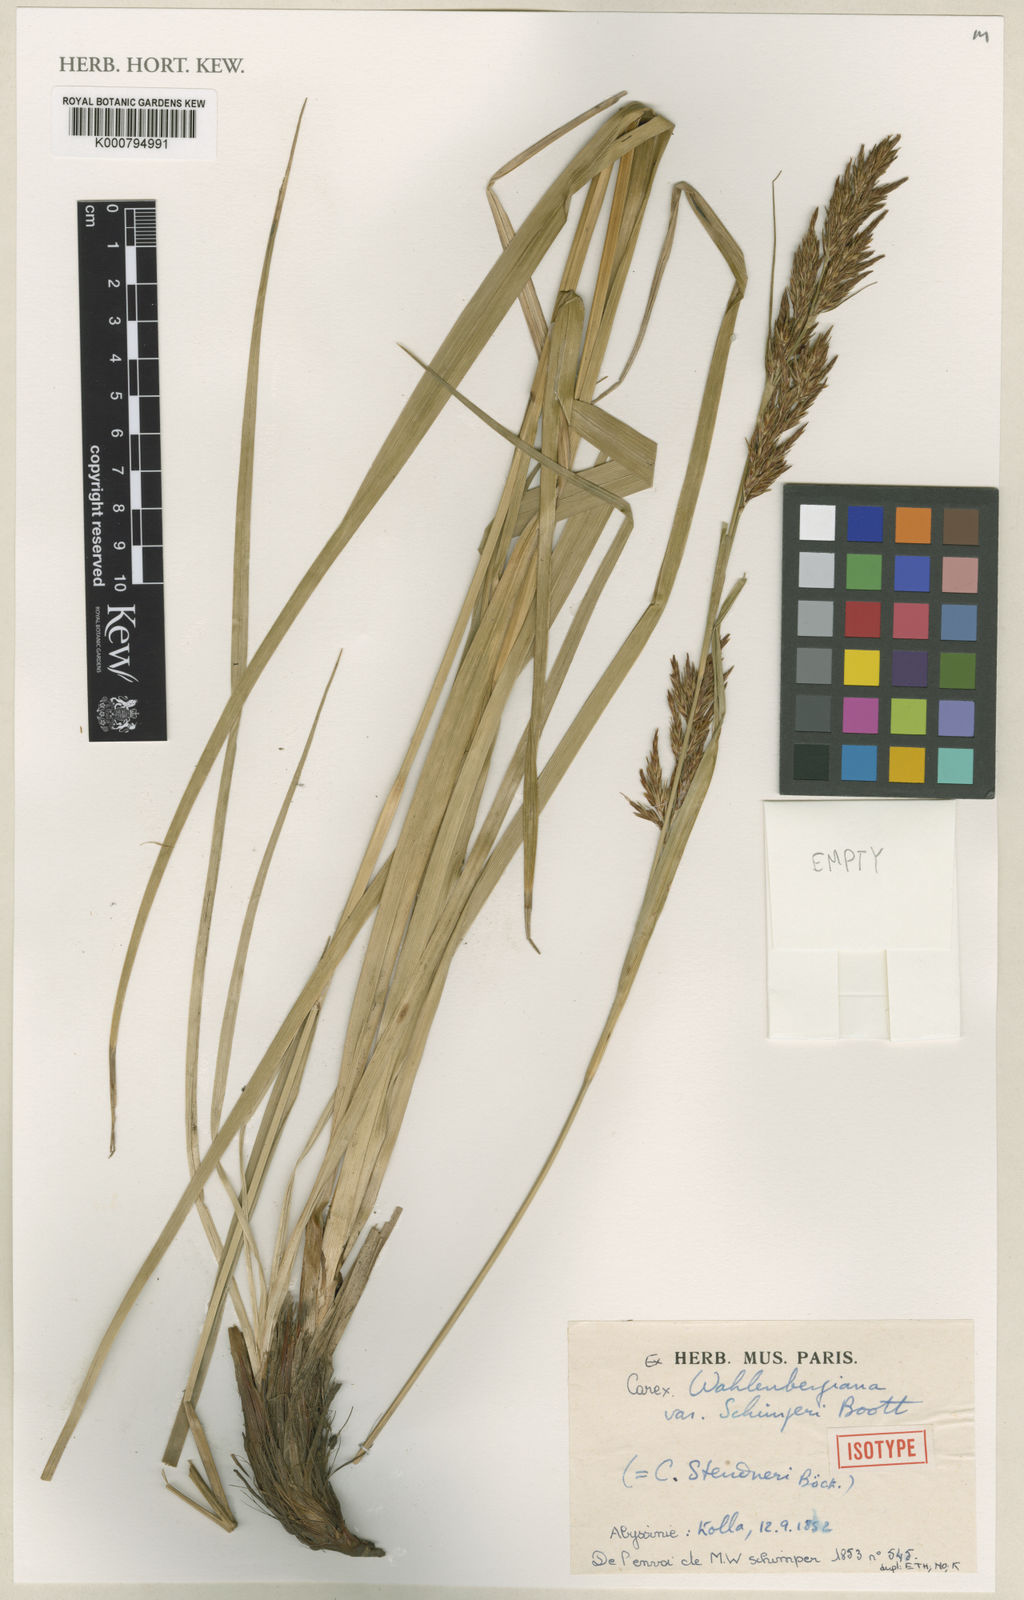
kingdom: Plantae
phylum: Tracheophyta
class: Liliopsida
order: Poales
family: Cyperaceae
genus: Carex
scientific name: Carex steudneri
